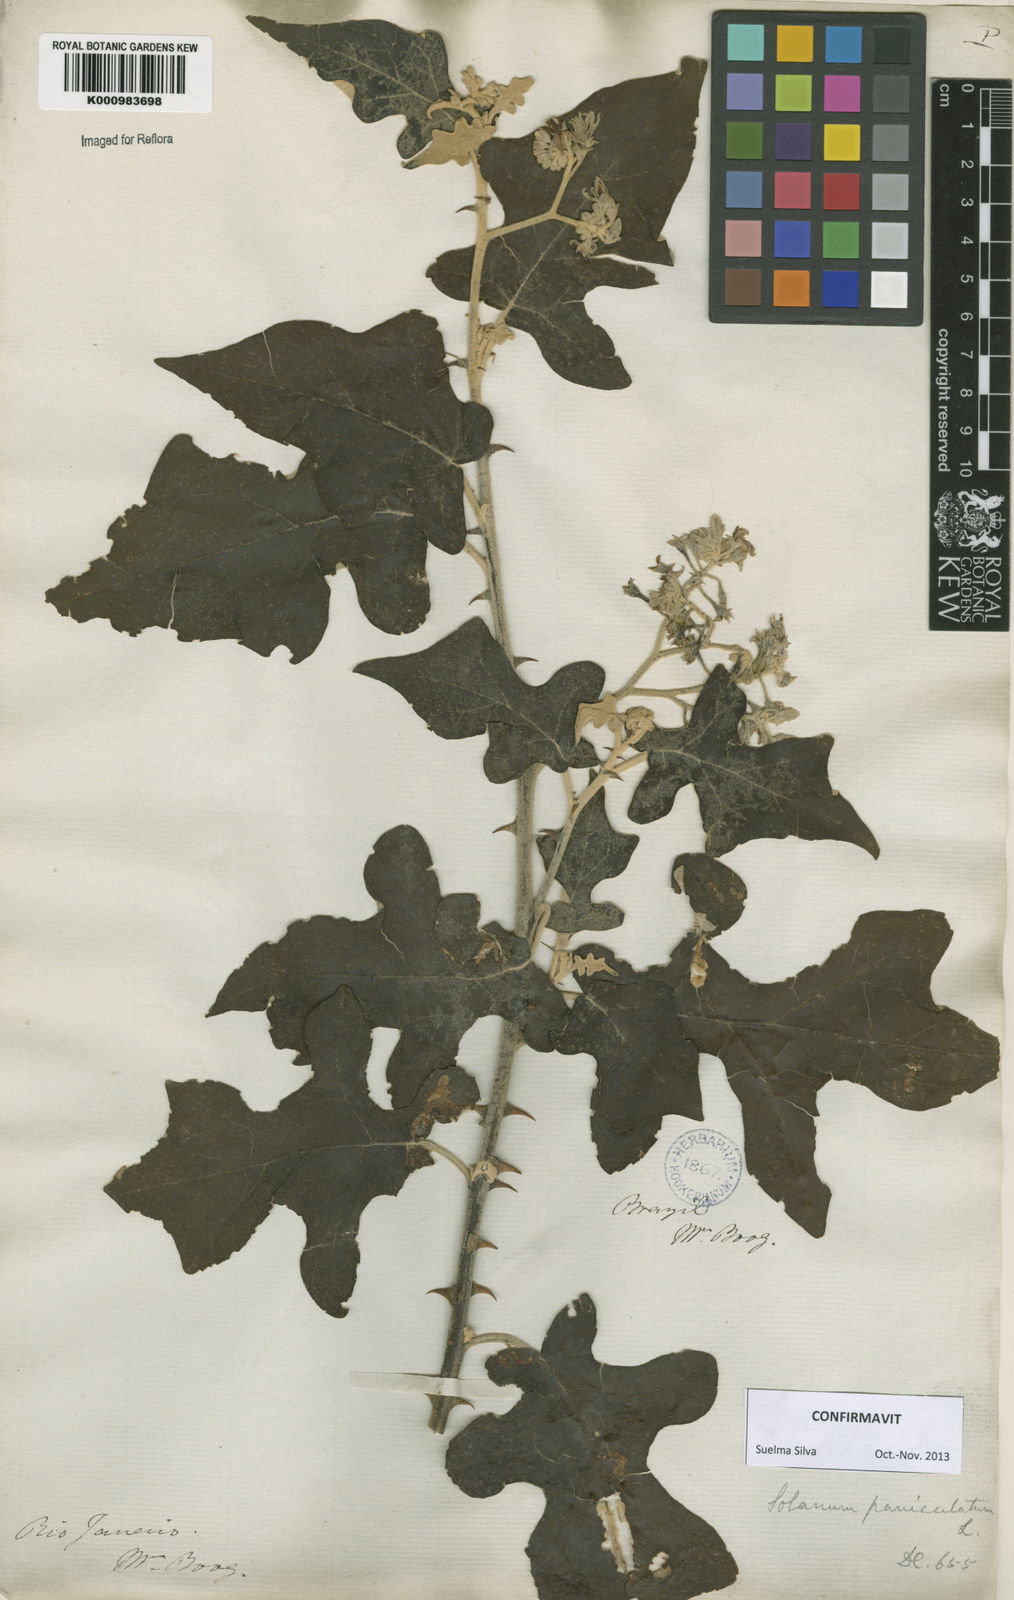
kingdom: Plantae
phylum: Tracheophyta
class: Magnoliopsida
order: Solanales
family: Solanaceae
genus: Solanum
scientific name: Solanum paniculatum
